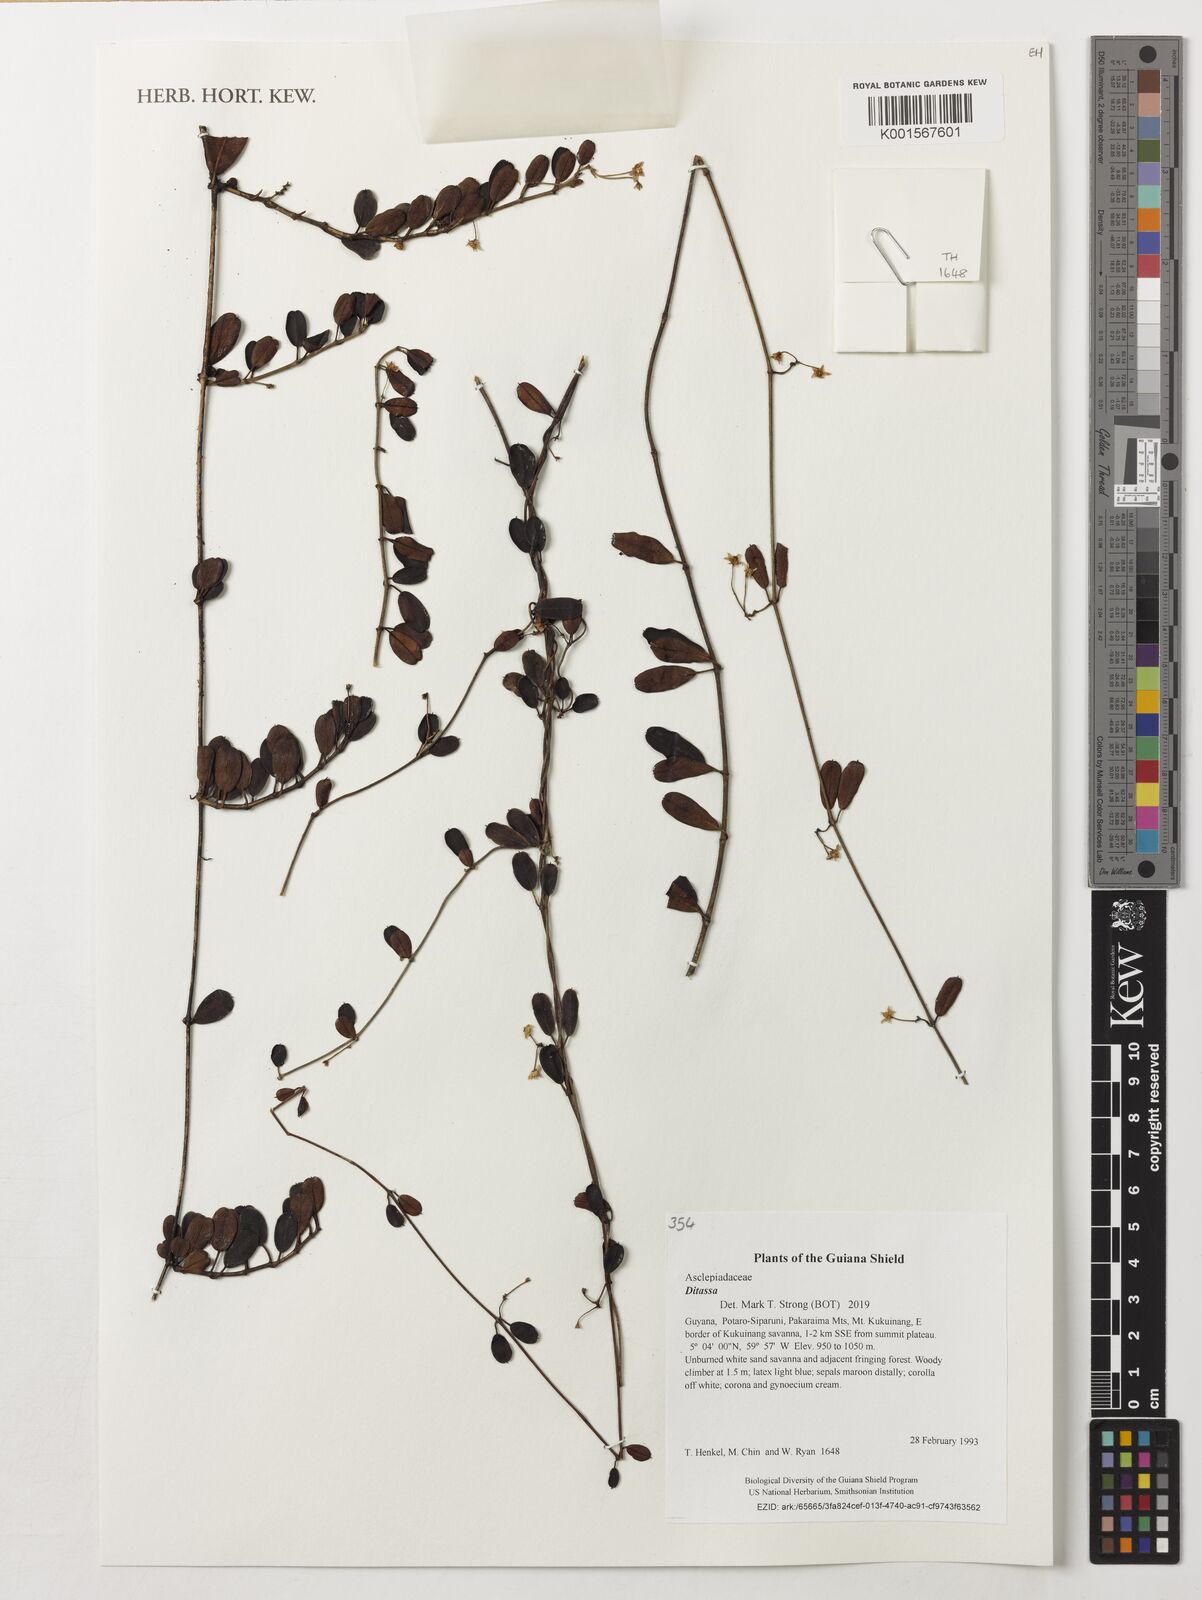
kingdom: Plantae
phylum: Tracheophyta
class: Magnoliopsida
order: Gentianales
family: Apocynaceae
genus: Ditassa
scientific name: Ditassa
